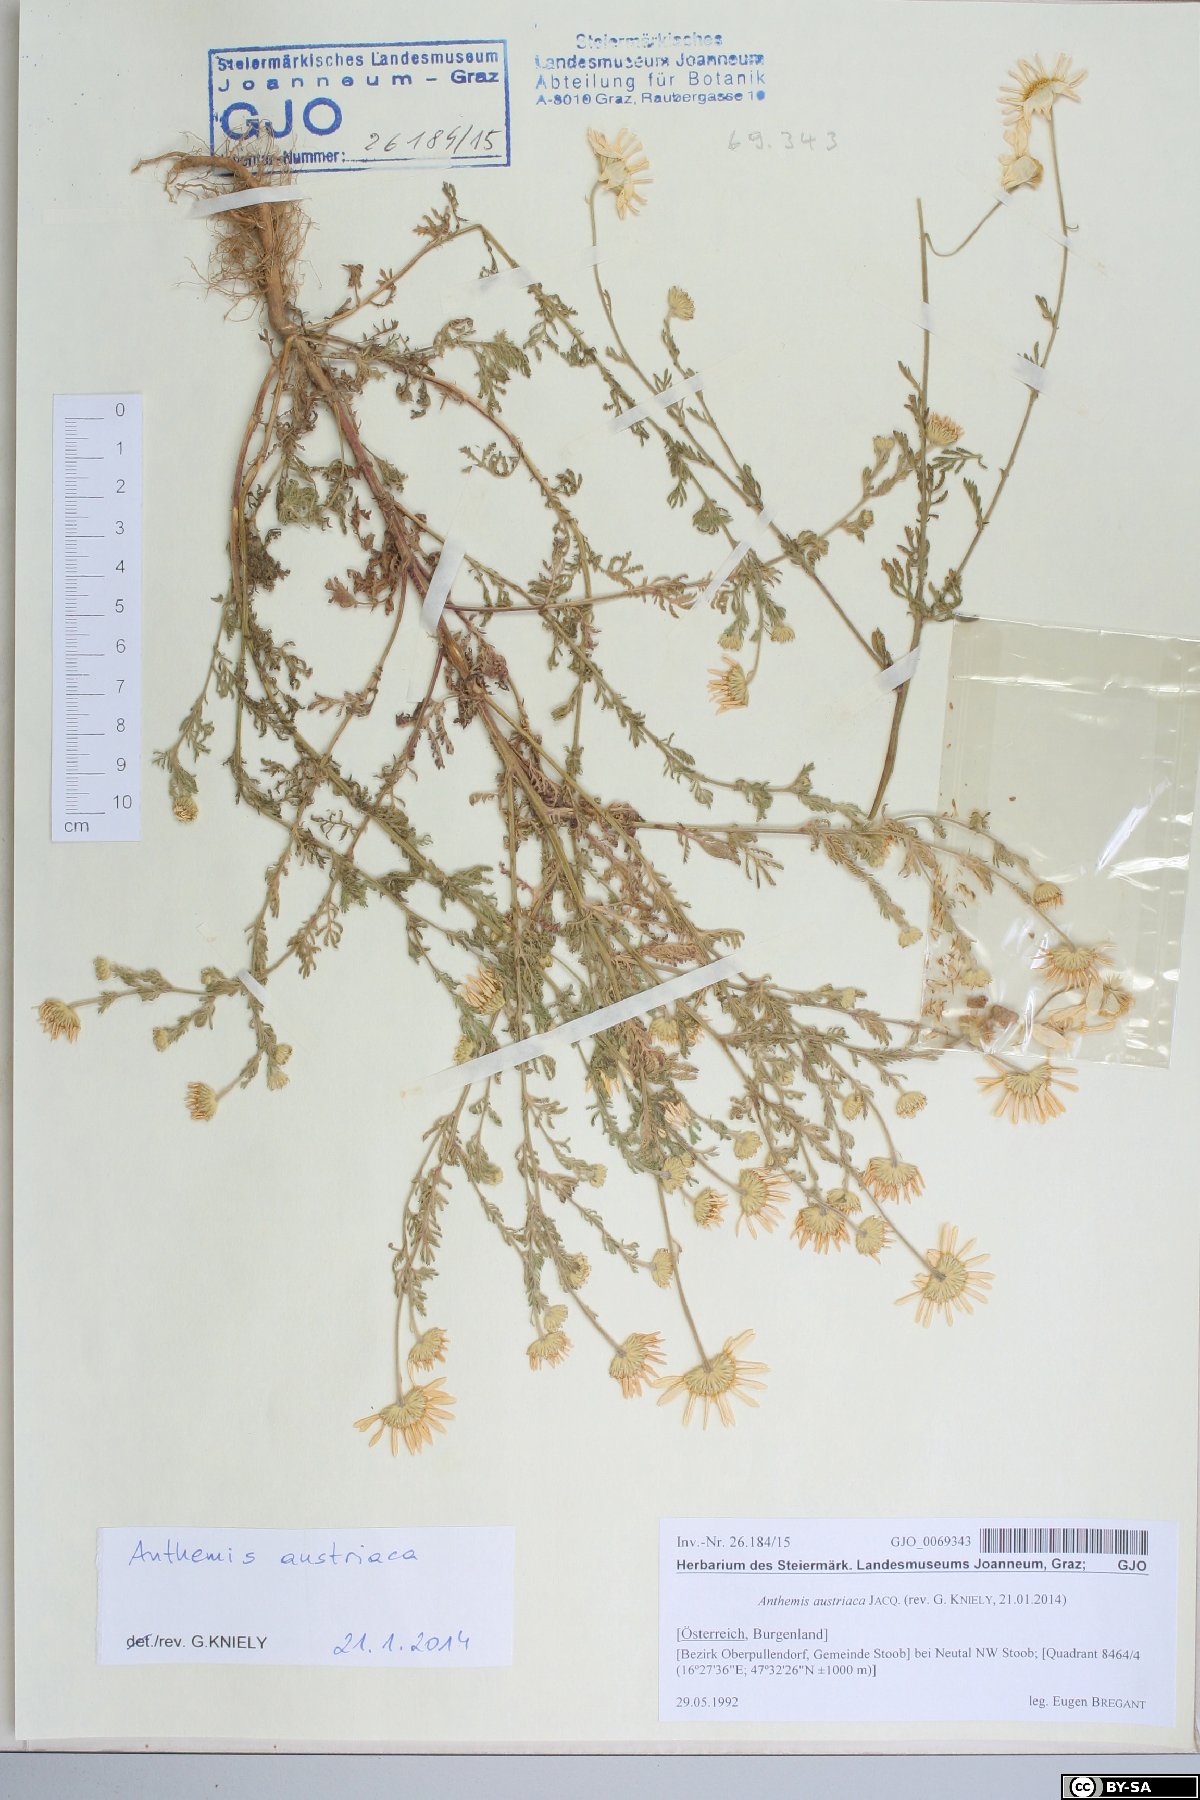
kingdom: Plantae
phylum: Tracheophyta
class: Magnoliopsida
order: Asterales
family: Asteraceae
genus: Cota
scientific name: Cota austriaca
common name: Austrian chamomile
